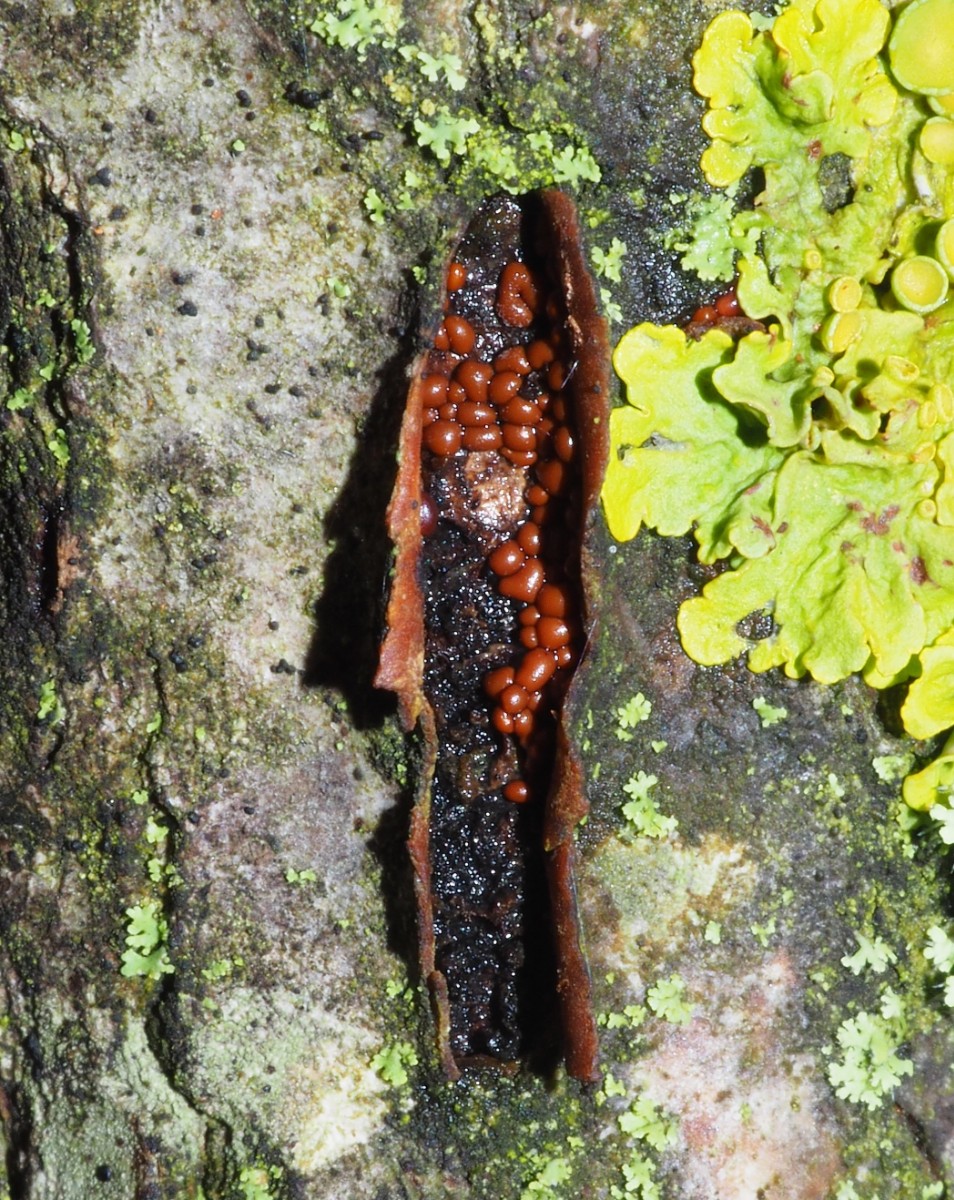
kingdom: Protozoa
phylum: Mycetozoa
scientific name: Mycetozoa
